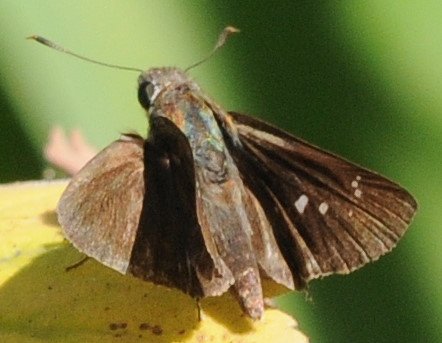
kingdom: Animalia
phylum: Arthropoda
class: Insecta
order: Lepidoptera
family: Hesperiidae
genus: Borbo
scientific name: Borbo borbonica
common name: Zeller's Skipper
